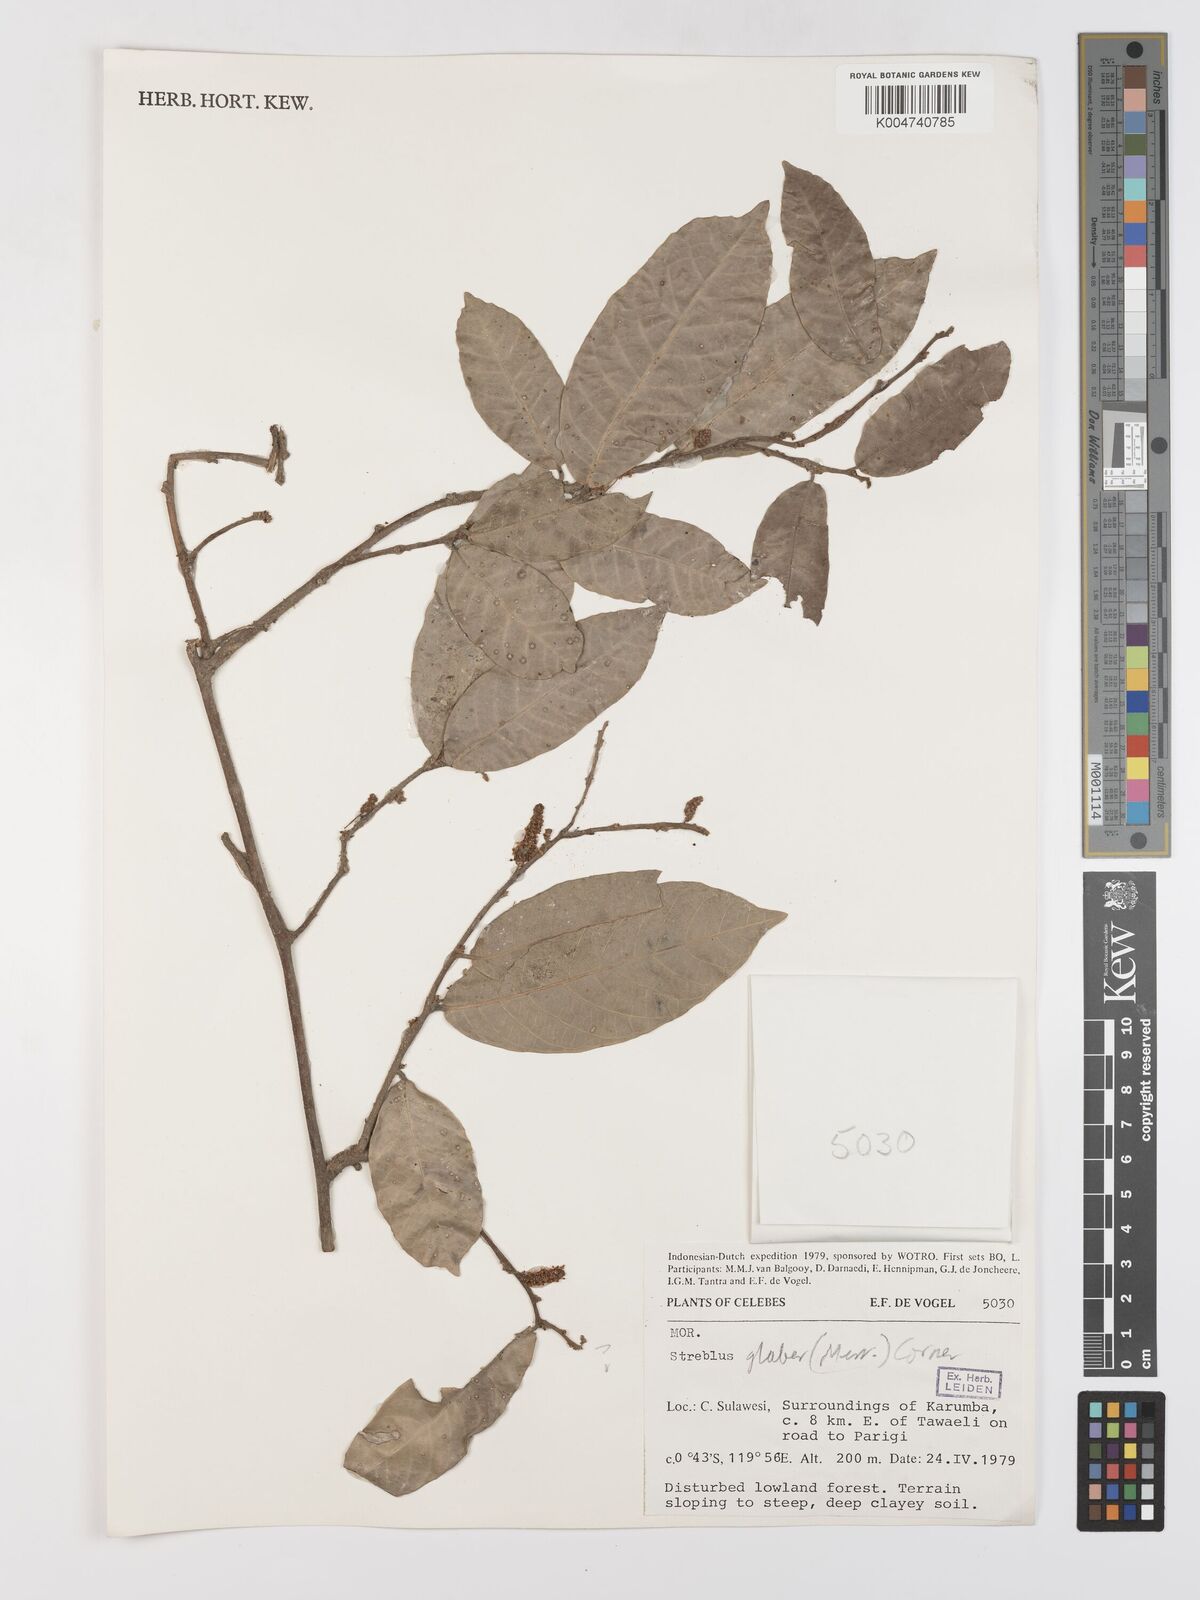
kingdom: Plantae
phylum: Tracheophyta
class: Magnoliopsida
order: Rosales
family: Moraceae
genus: Paratrophis
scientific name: Paratrophis glabra
